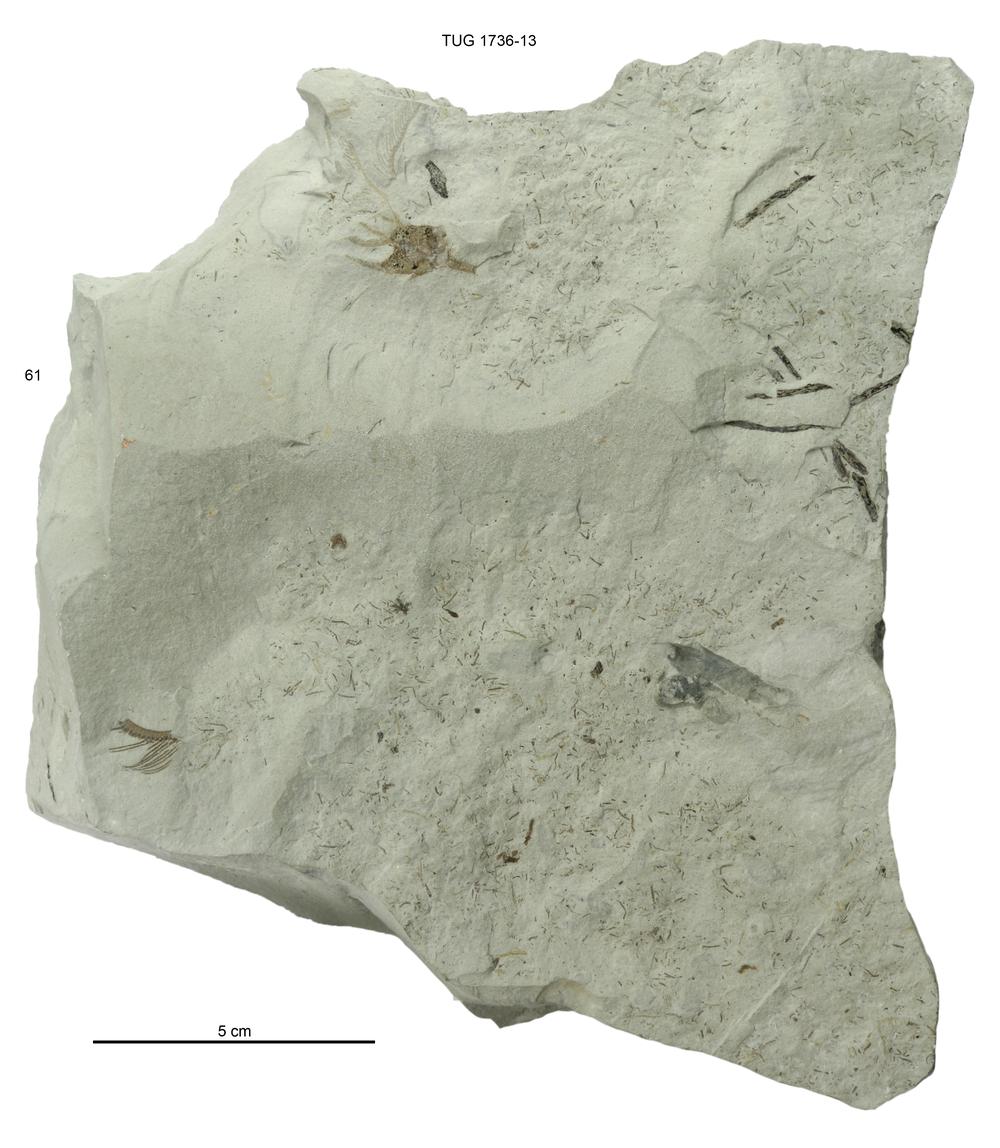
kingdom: Animalia
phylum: Echinodermata
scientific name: Echinodermata
